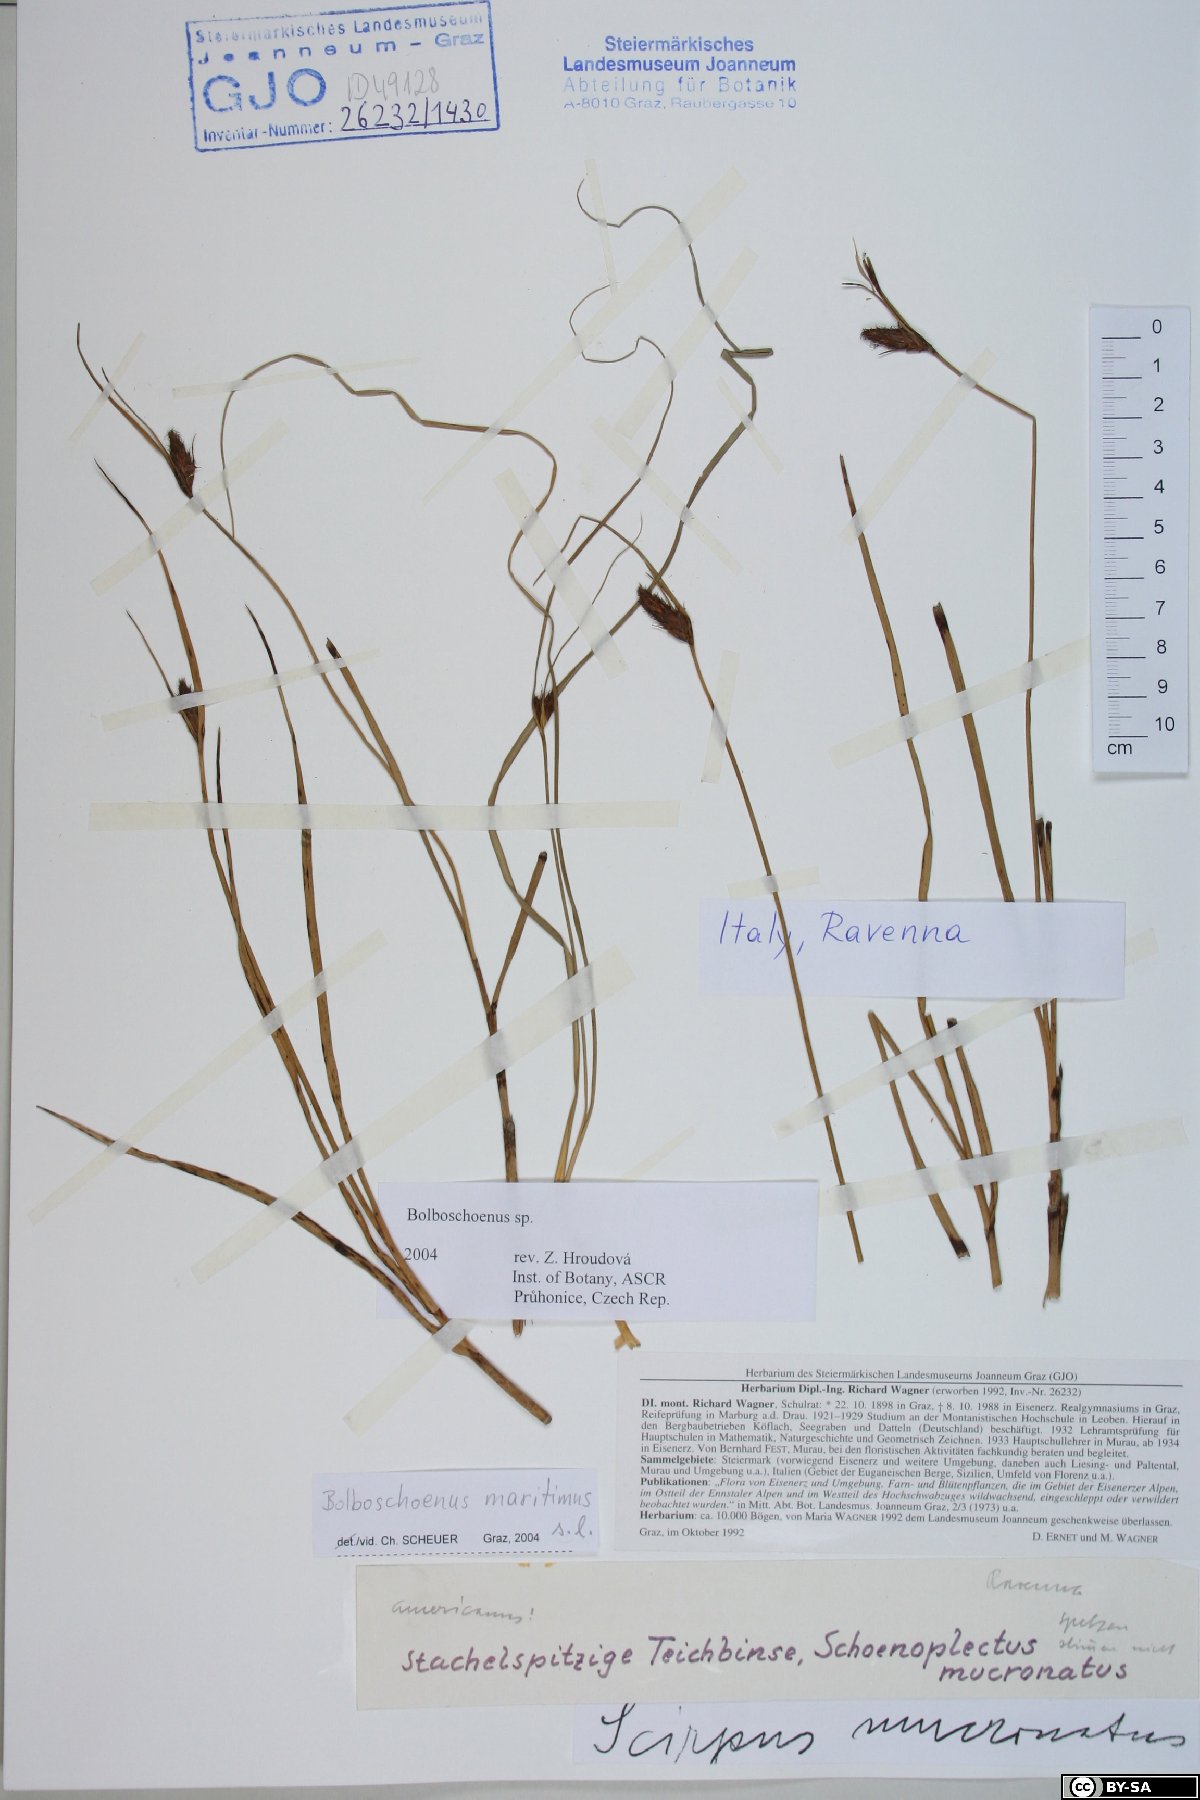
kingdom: Plantae
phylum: Tracheophyta
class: Liliopsida
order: Poales
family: Cyperaceae
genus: Bolboschoenus
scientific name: Bolboschoenus
